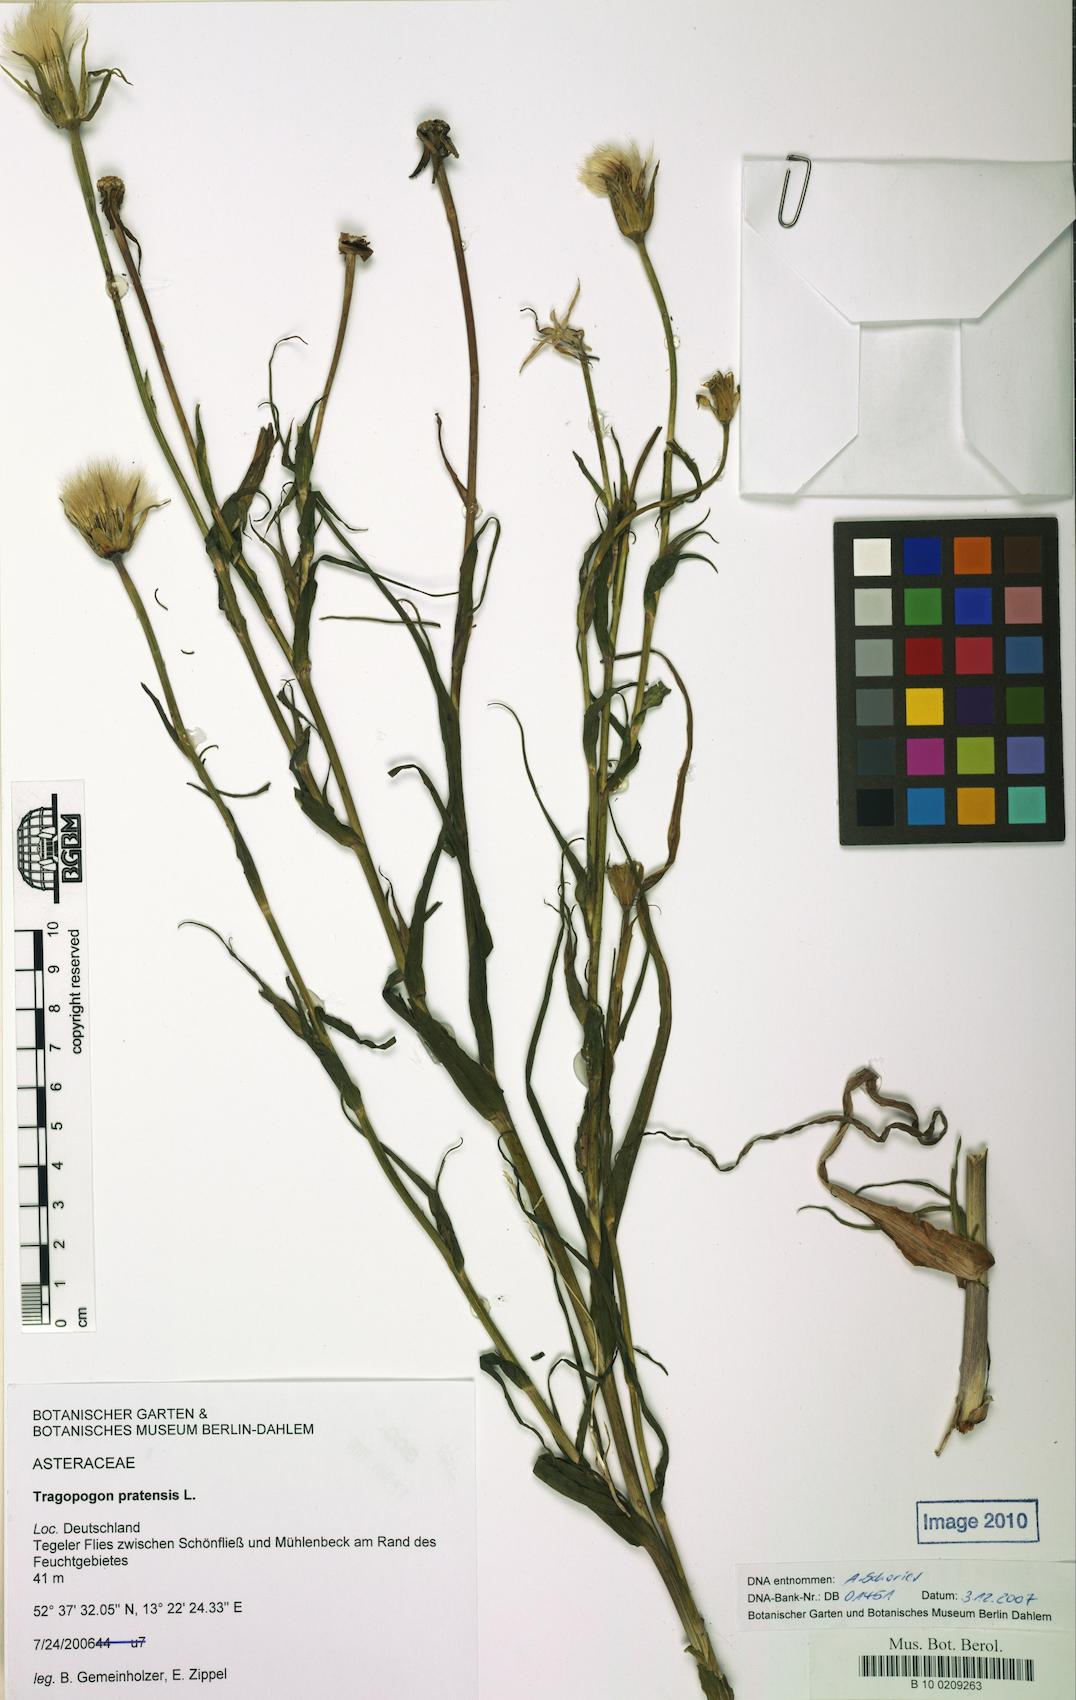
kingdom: Plantae
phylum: Tracheophyta
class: Magnoliopsida
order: Asterales
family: Asteraceae
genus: Tragopogon
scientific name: Tragopogon pratensis
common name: Goat's-beard
